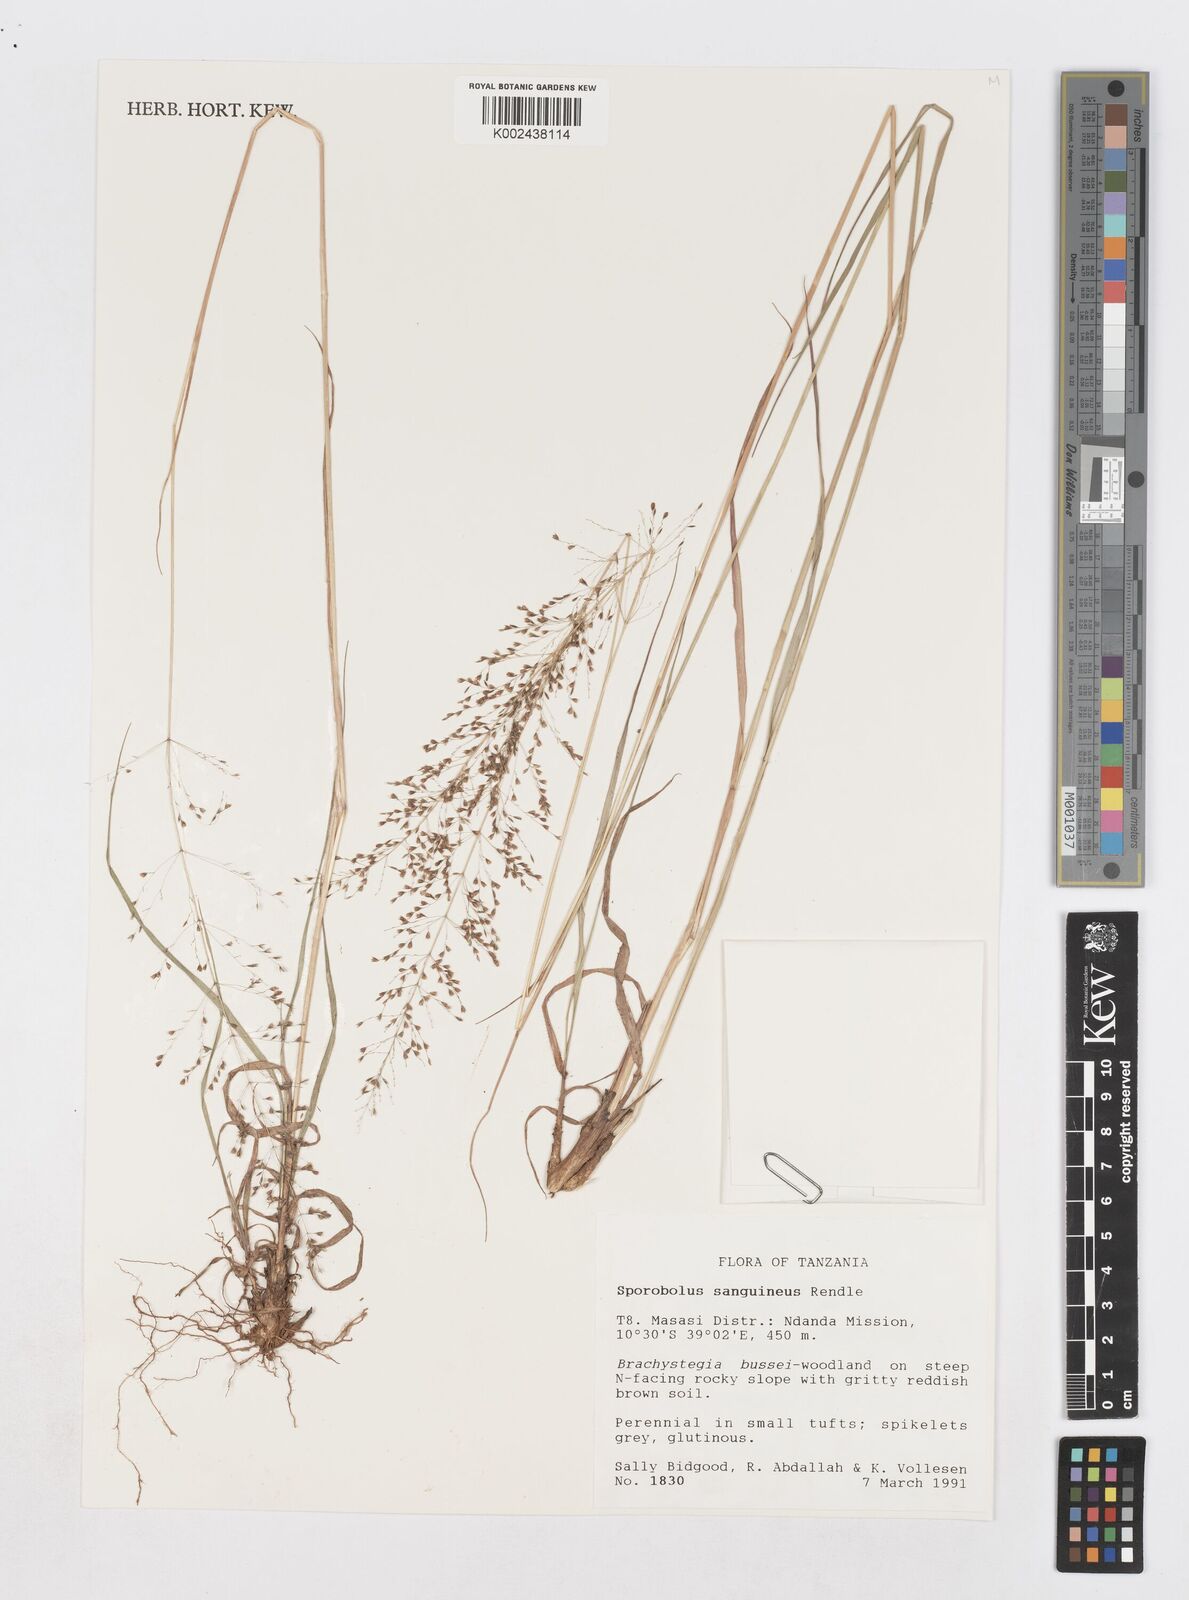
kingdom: Plantae
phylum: Tracheophyta
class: Liliopsida
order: Poales
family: Poaceae
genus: Sporobolus
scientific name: Sporobolus sanguineus
